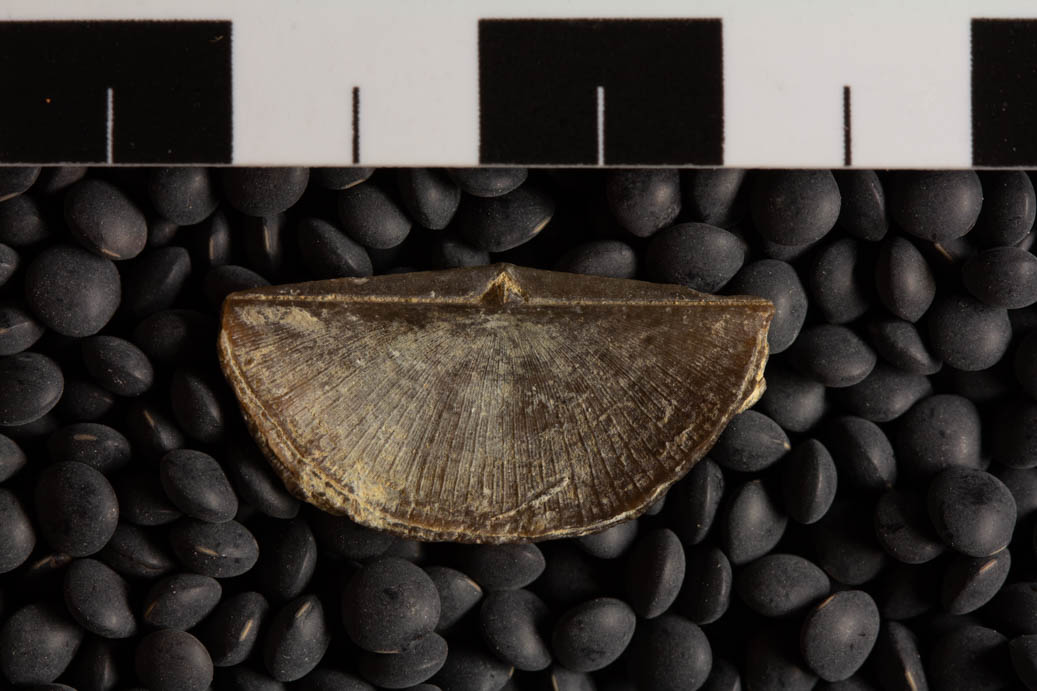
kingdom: Animalia
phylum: Brachiopoda
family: Sowerbyellidae
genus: Eochonetes
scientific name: Eochonetes Plectambonites rugosa
